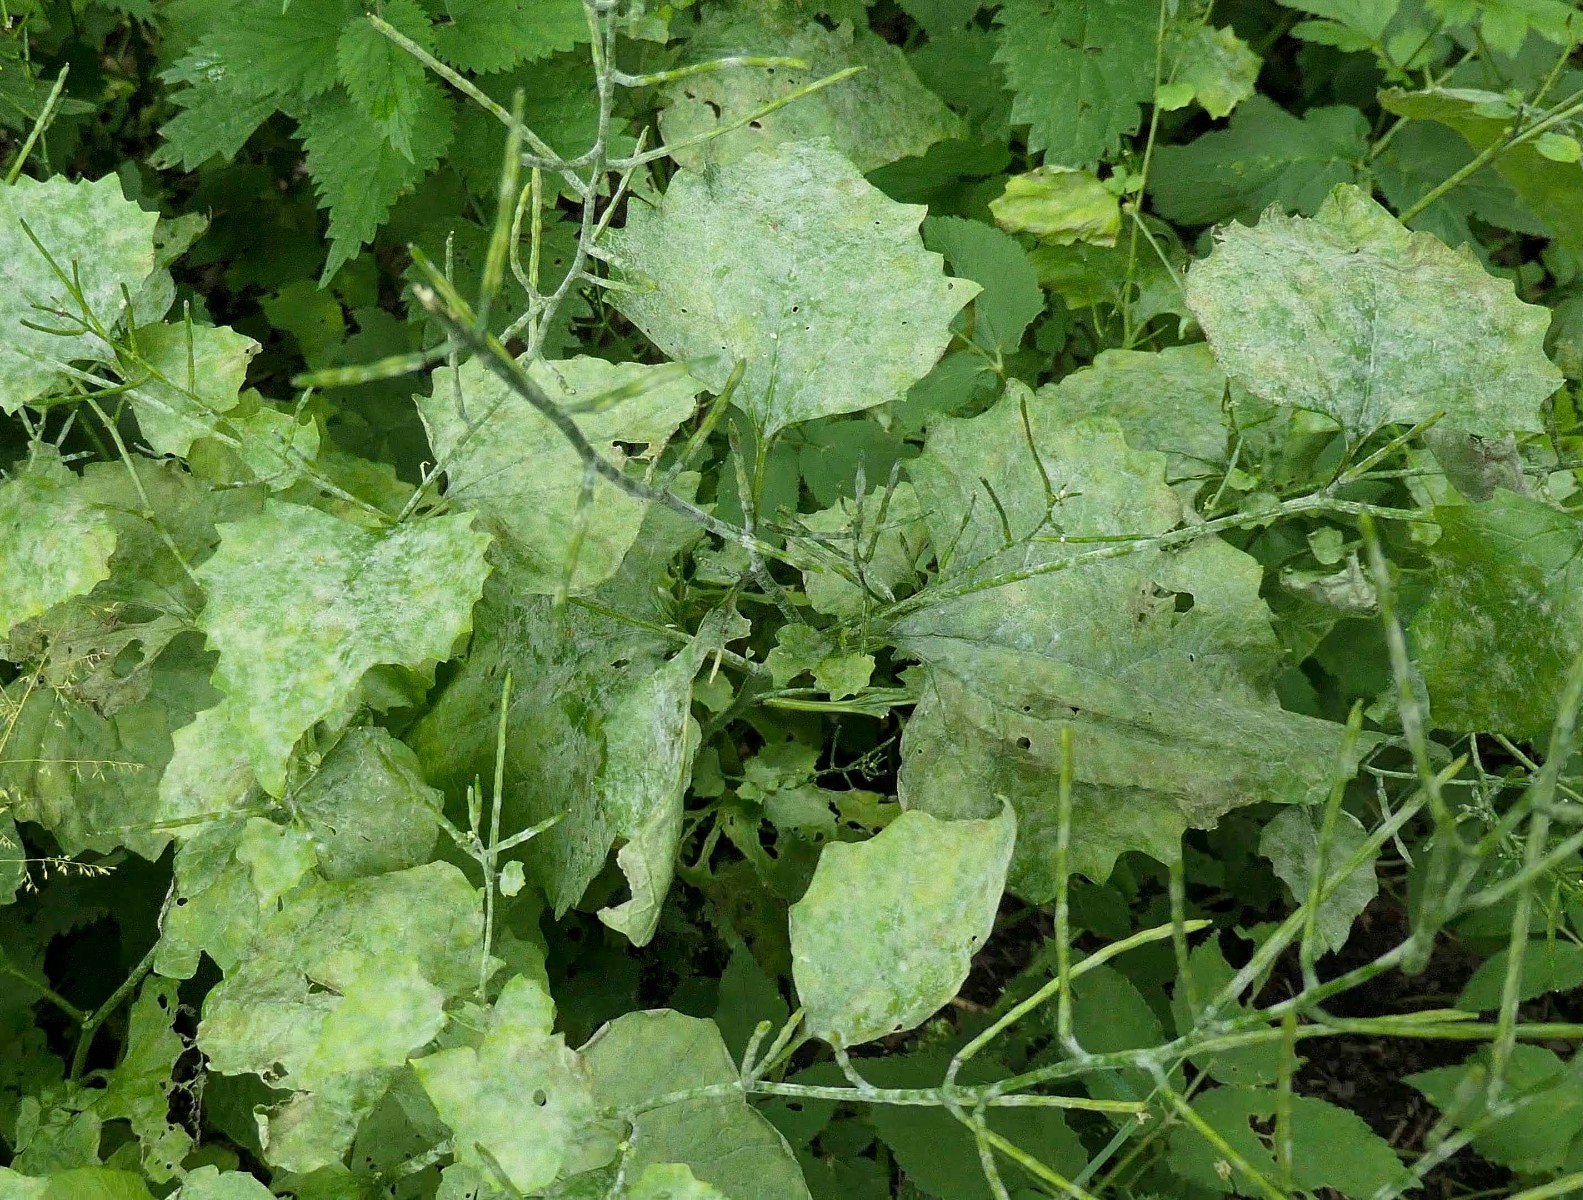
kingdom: Fungi
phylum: Ascomycota
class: Leotiomycetes
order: Helotiales
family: Erysiphaceae
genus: Erysiphe
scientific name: Erysiphe cruciferarum
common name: korsblomst-meldug
